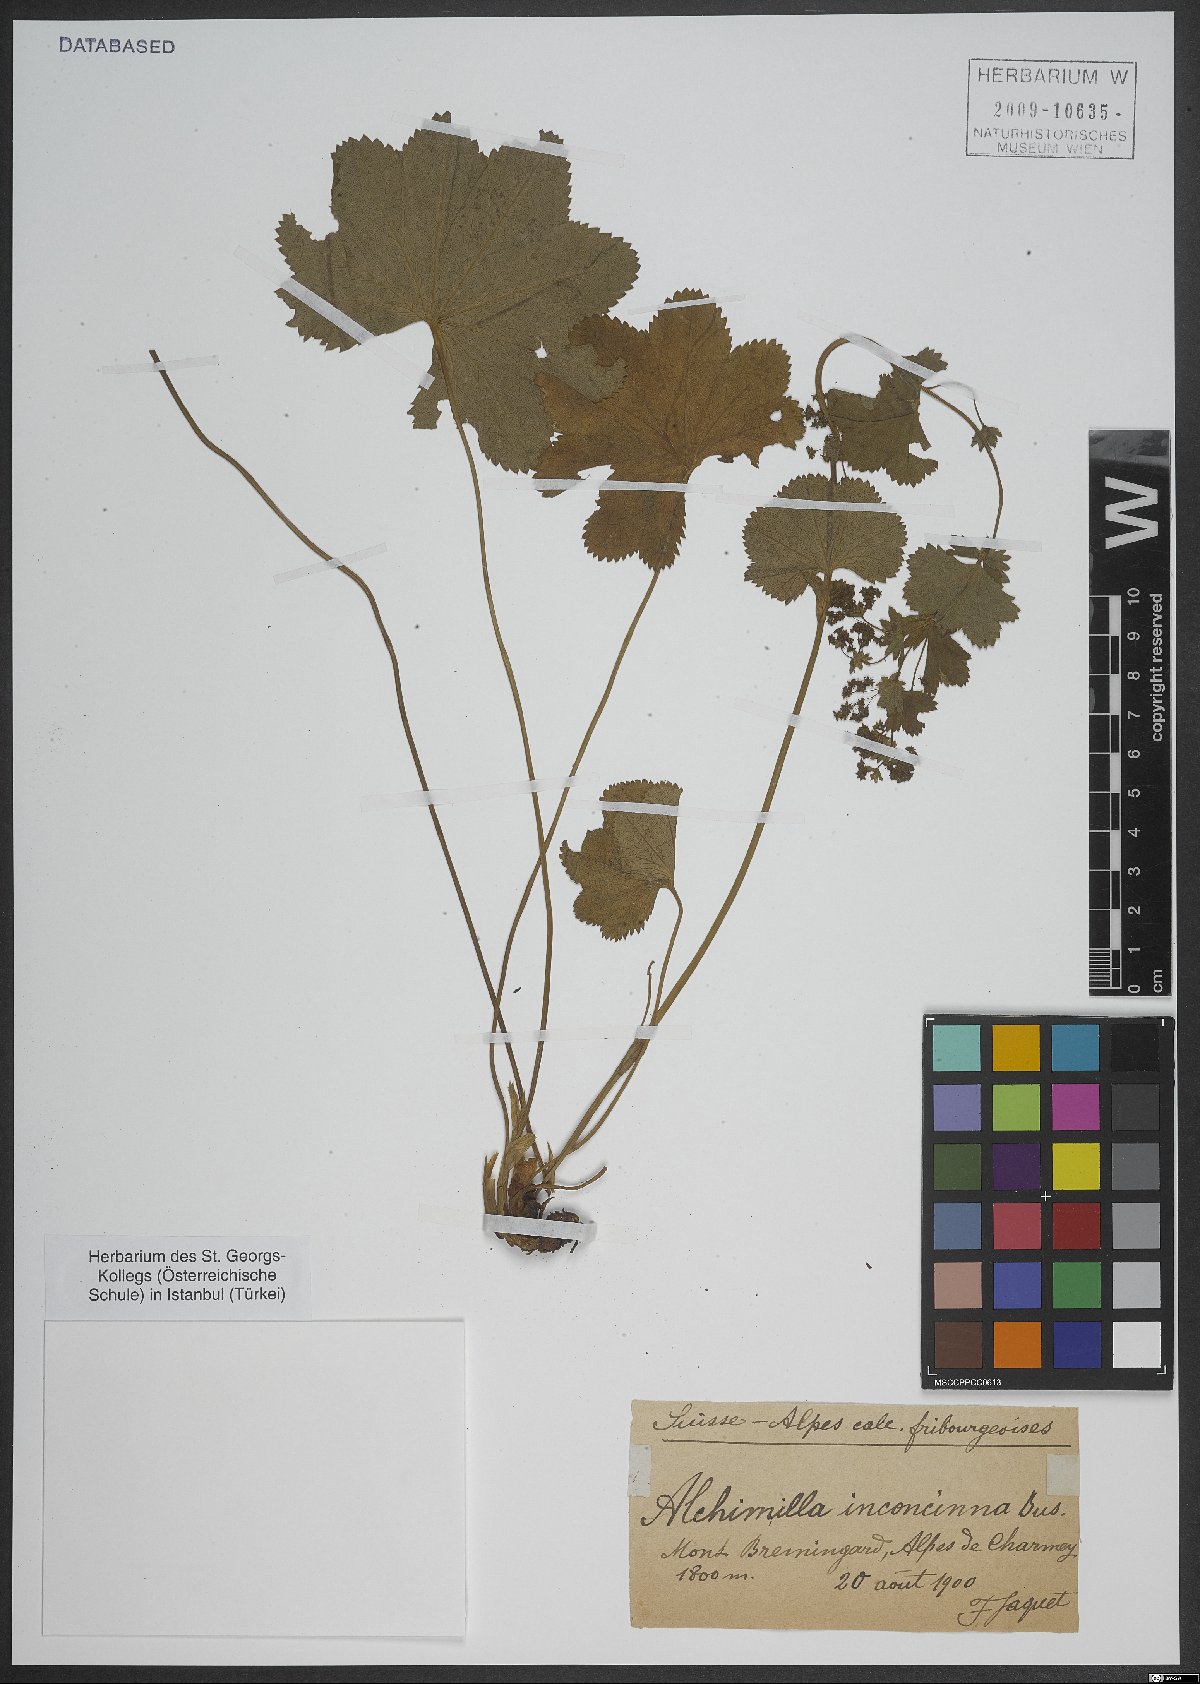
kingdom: Plantae
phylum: Tracheophyta
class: Magnoliopsida
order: Rosales
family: Rosaceae
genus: Alchemilla
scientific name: Alchemilla inconcinna
